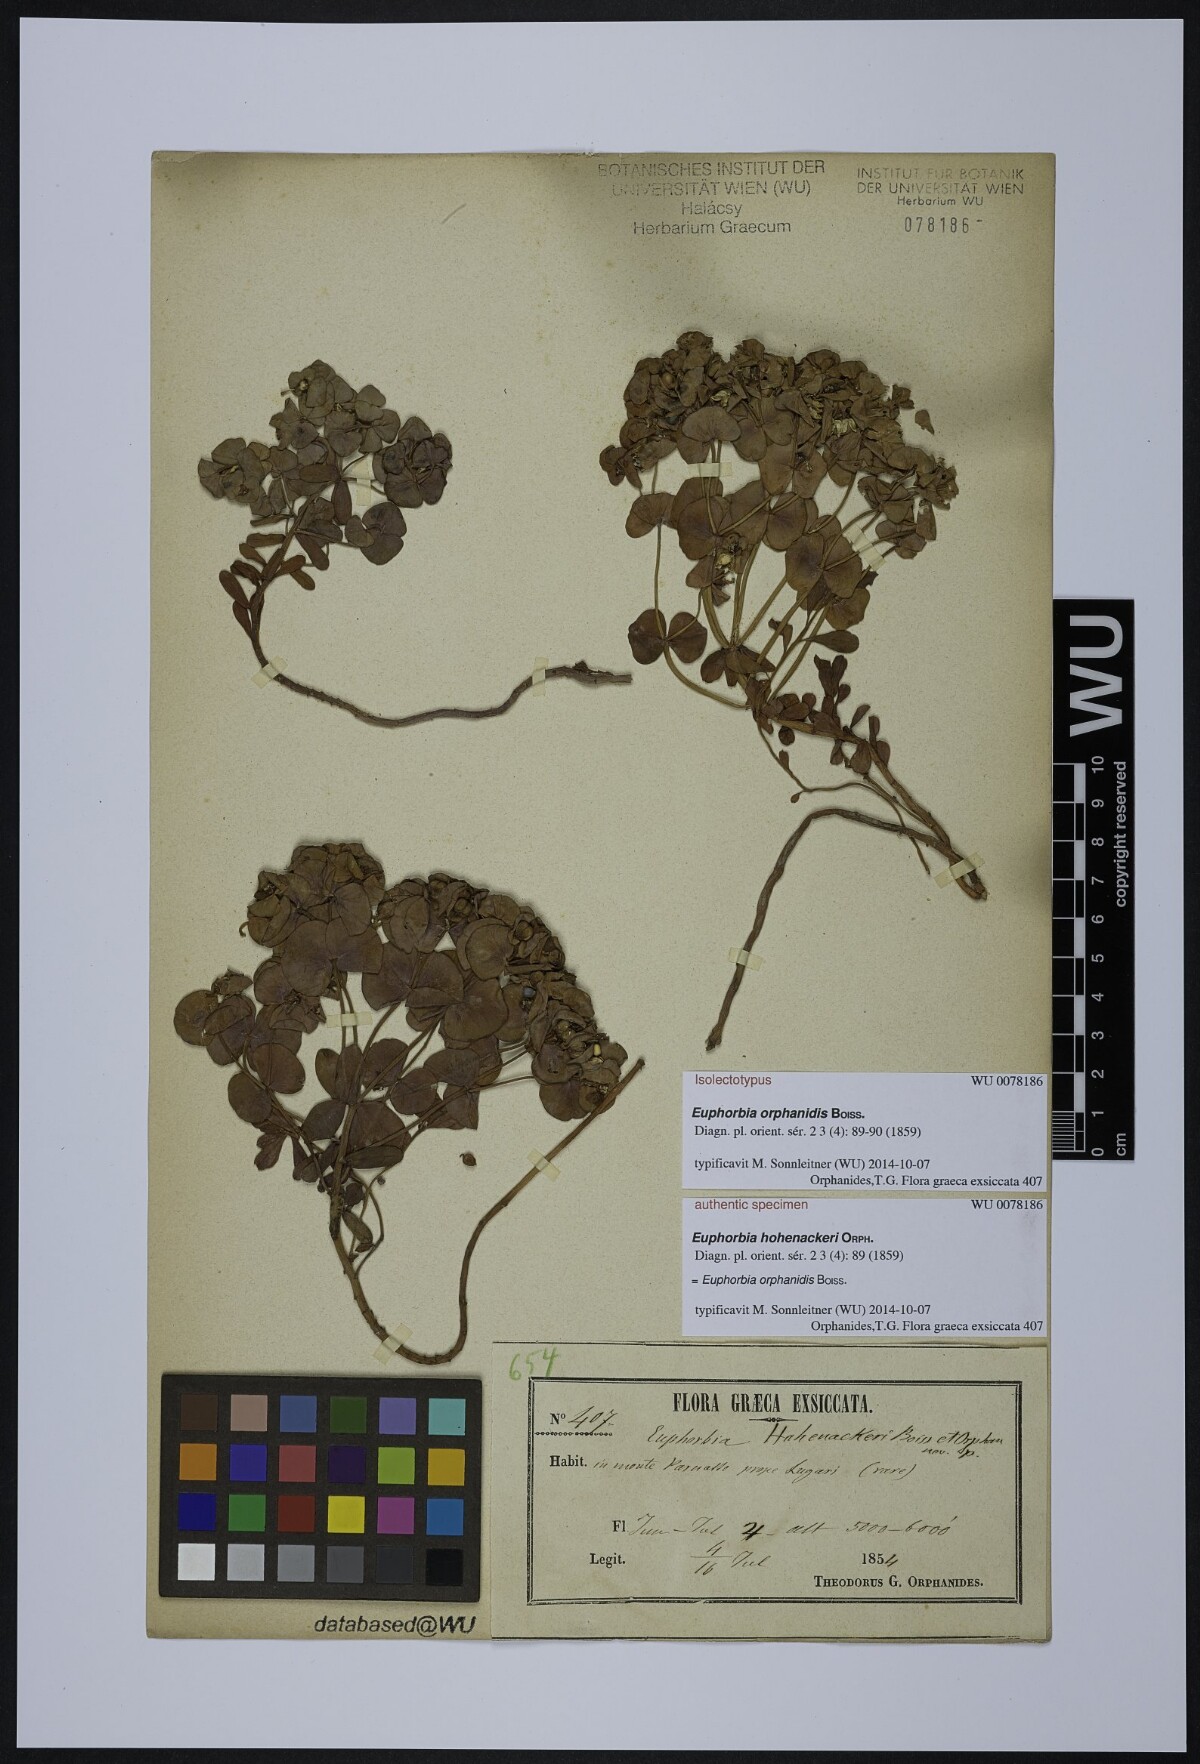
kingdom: Plantae
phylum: Tracheophyta
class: Magnoliopsida
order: Malpighiales
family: Euphorbiaceae
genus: Euphorbia
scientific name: Euphorbia orphanidis
